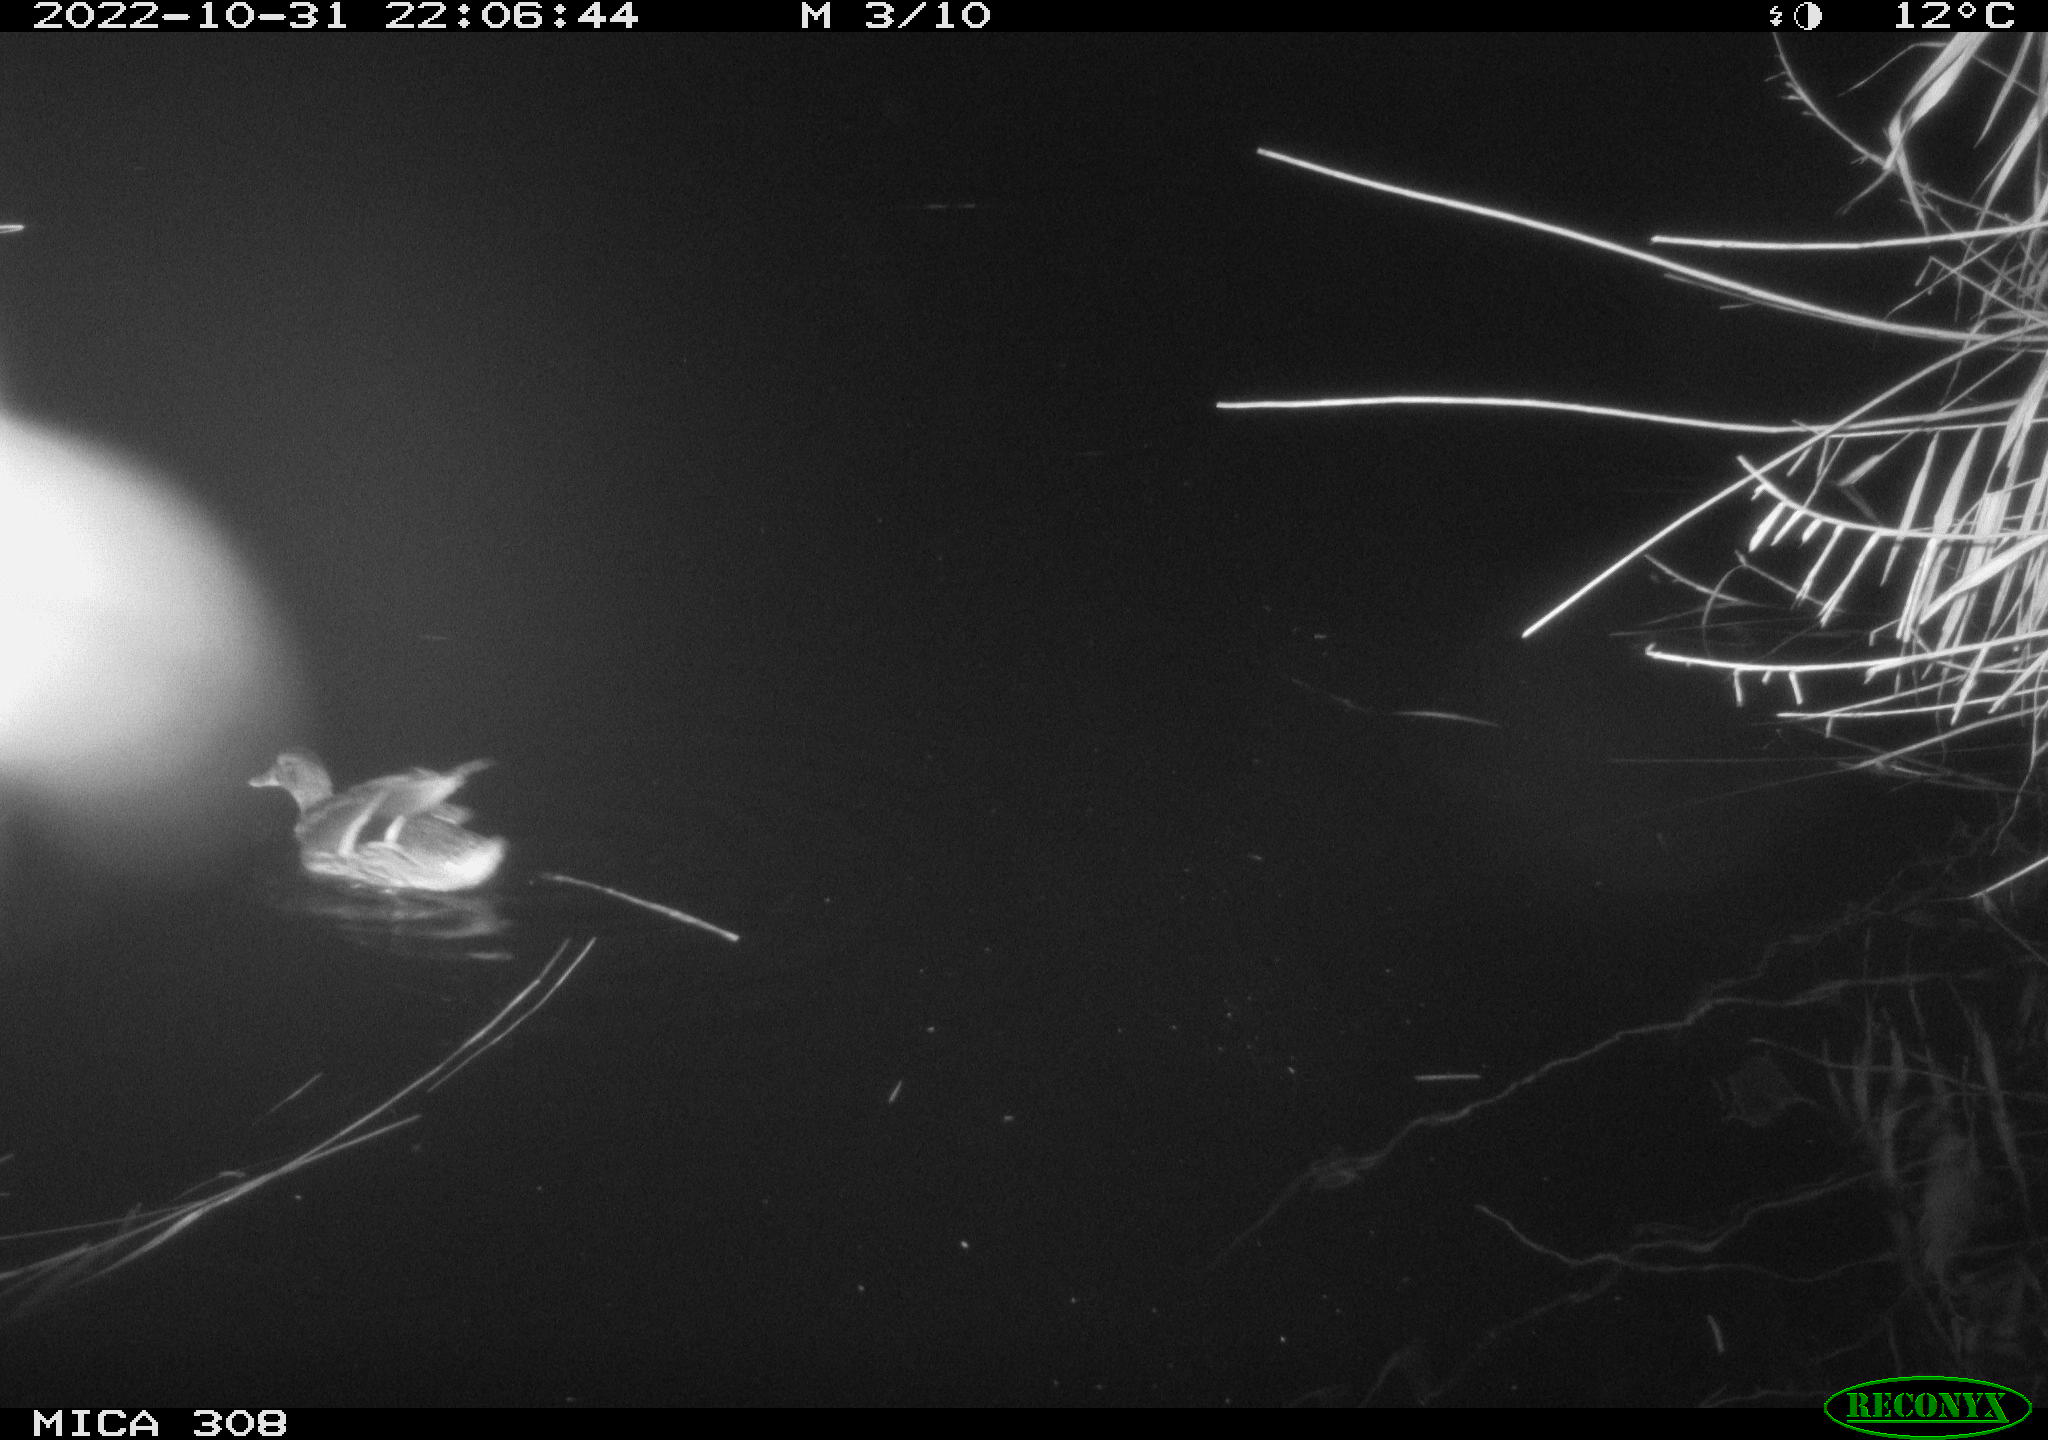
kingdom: Animalia
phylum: Chordata
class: Aves
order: Anseriformes
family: Anatidae
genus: Anas
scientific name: Anas
